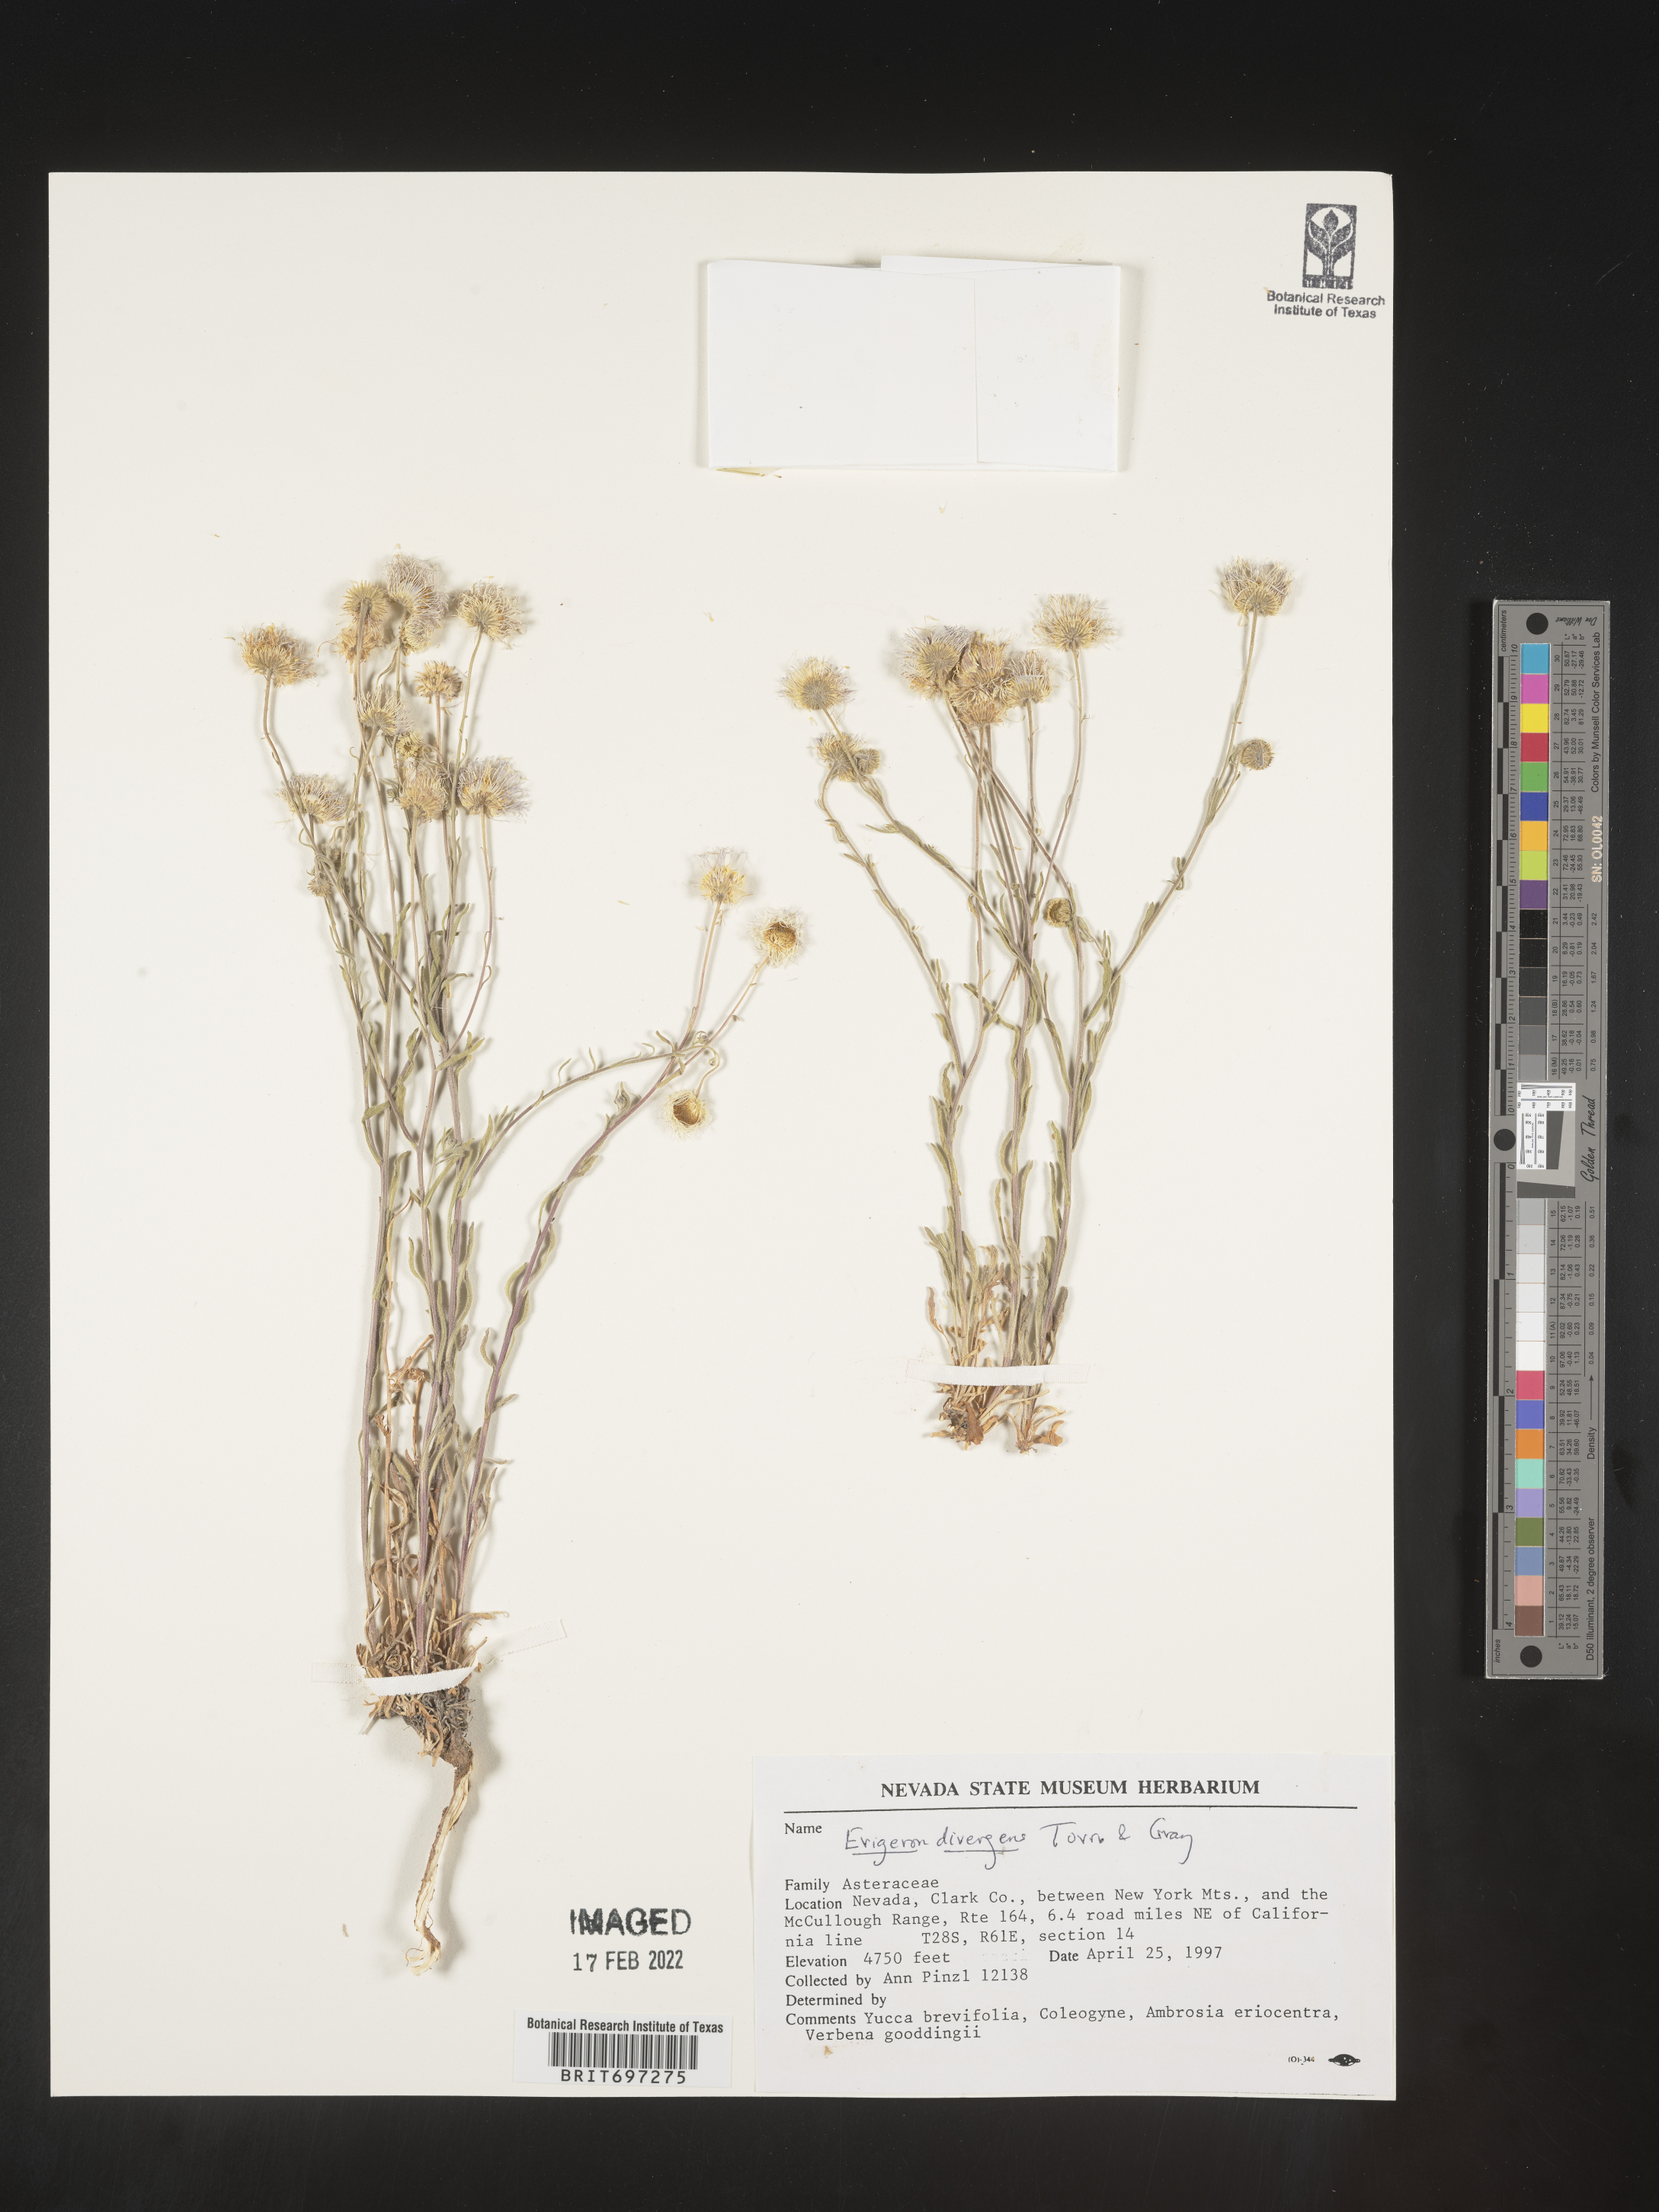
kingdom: Plantae
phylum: Tracheophyta
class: Magnoliopsida
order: Asterales
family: Asteraceae
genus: Erigeron
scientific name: Erigeron divergens
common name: Diffuse fleabane
